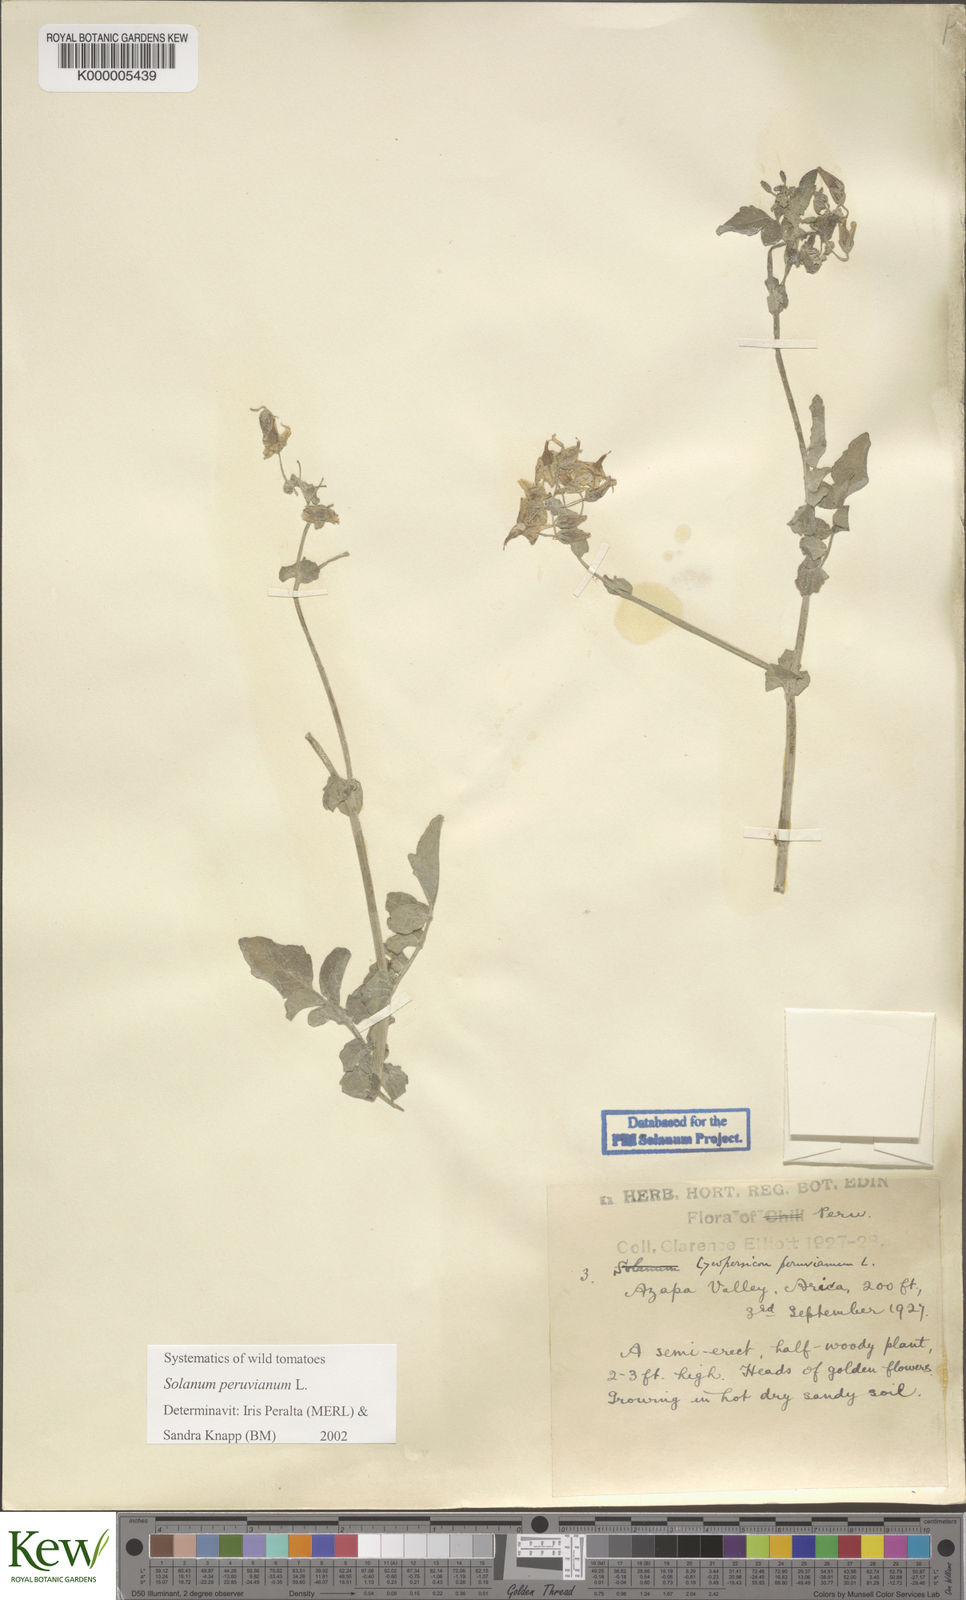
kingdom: Plantae
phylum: Tracheophyta
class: Magnoliopsida
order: Solanales
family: Solanaceae
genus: Solanum
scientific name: Solanum peruvianum
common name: Peruvian nightshade
